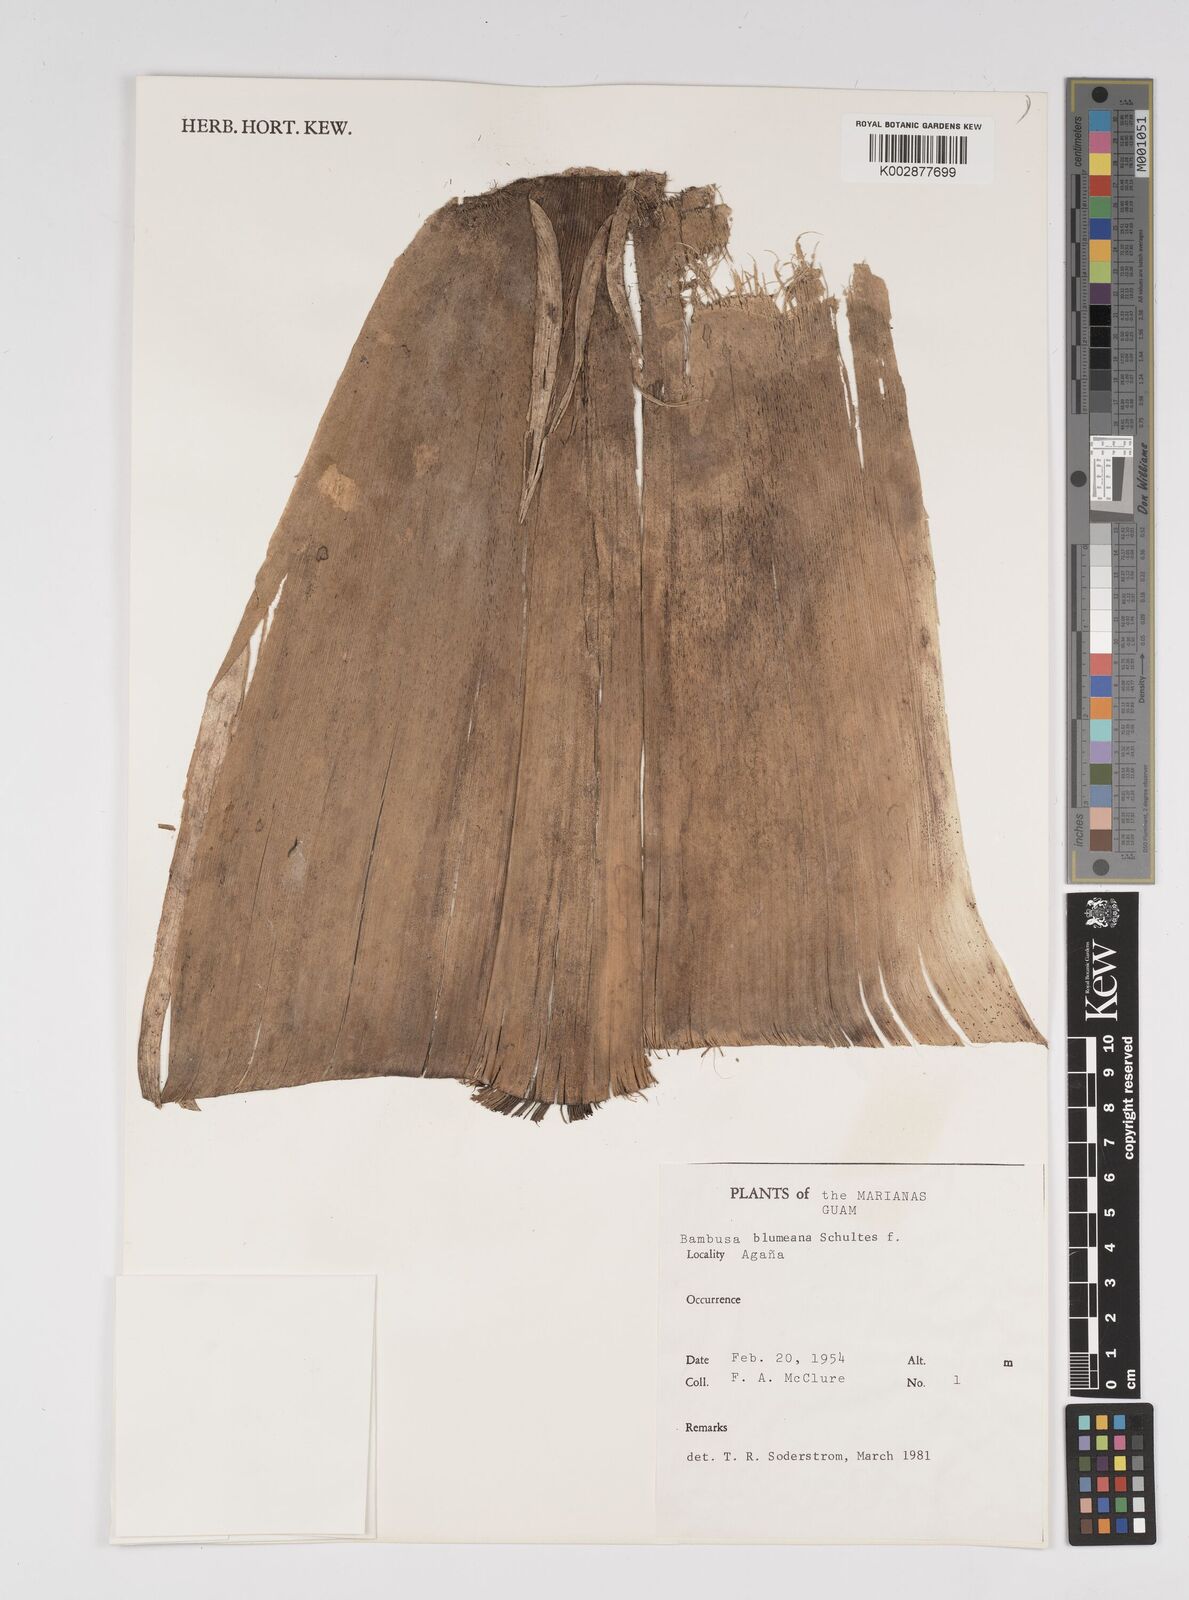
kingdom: Plantae
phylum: Tracheophyta
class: Liliopsida
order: Poales
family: Poaceae
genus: Bambusa
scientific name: Bambusa spinosa
